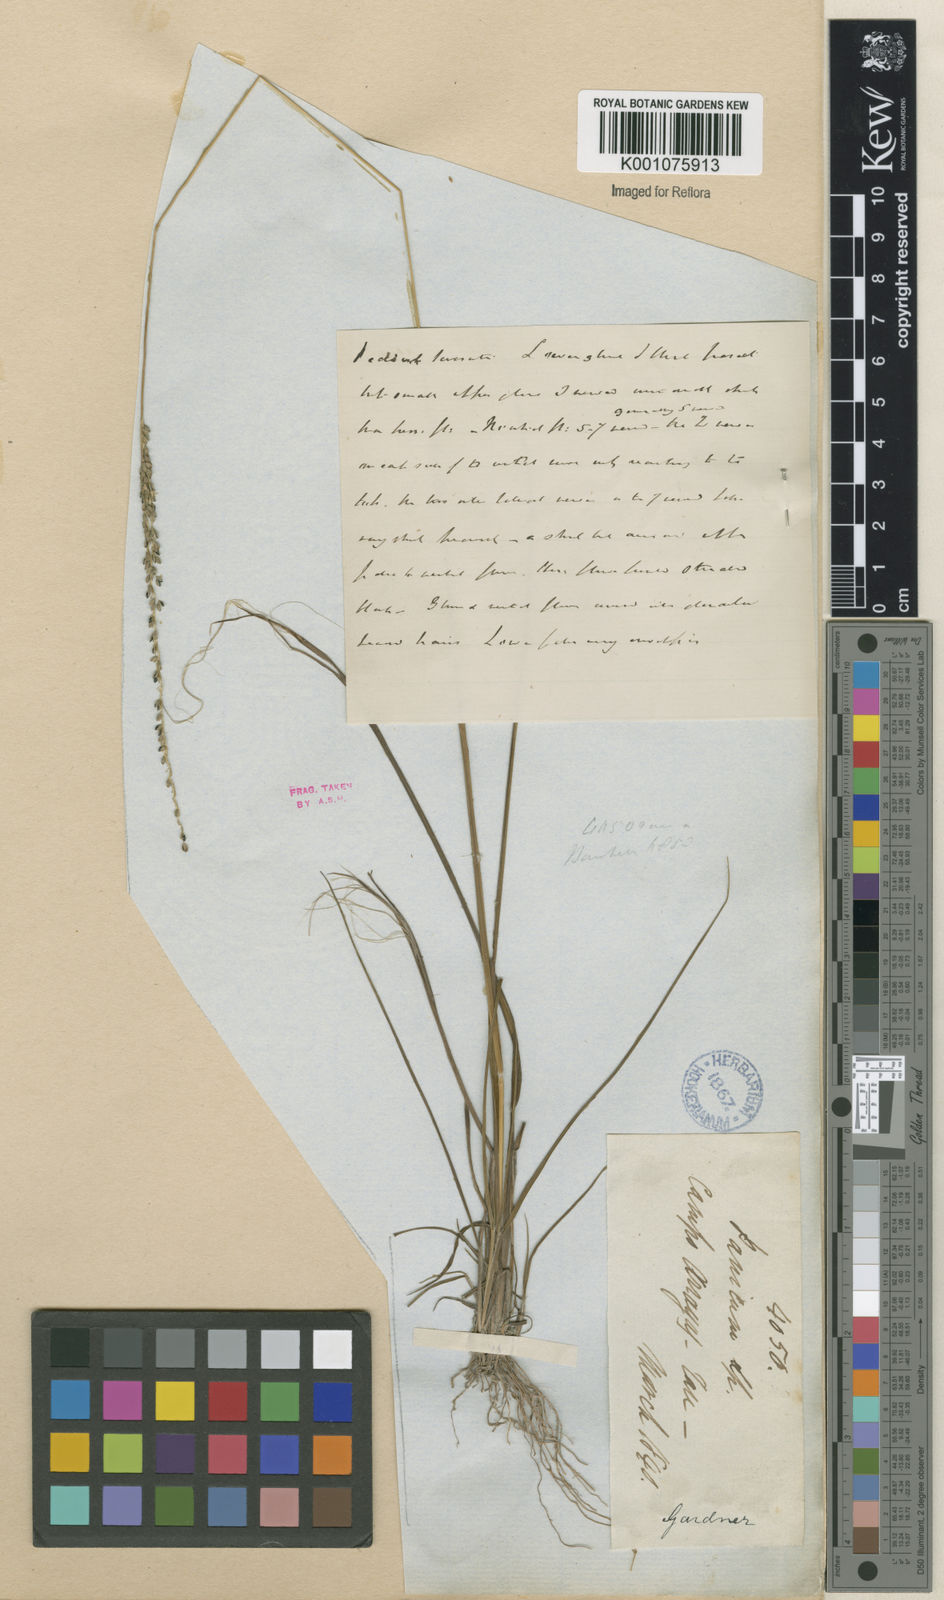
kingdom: Plantae
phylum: Tracheophyta
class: Liliopsida
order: Poales
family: Poaceae
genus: Digitaria
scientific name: Digitaria corynotricha
